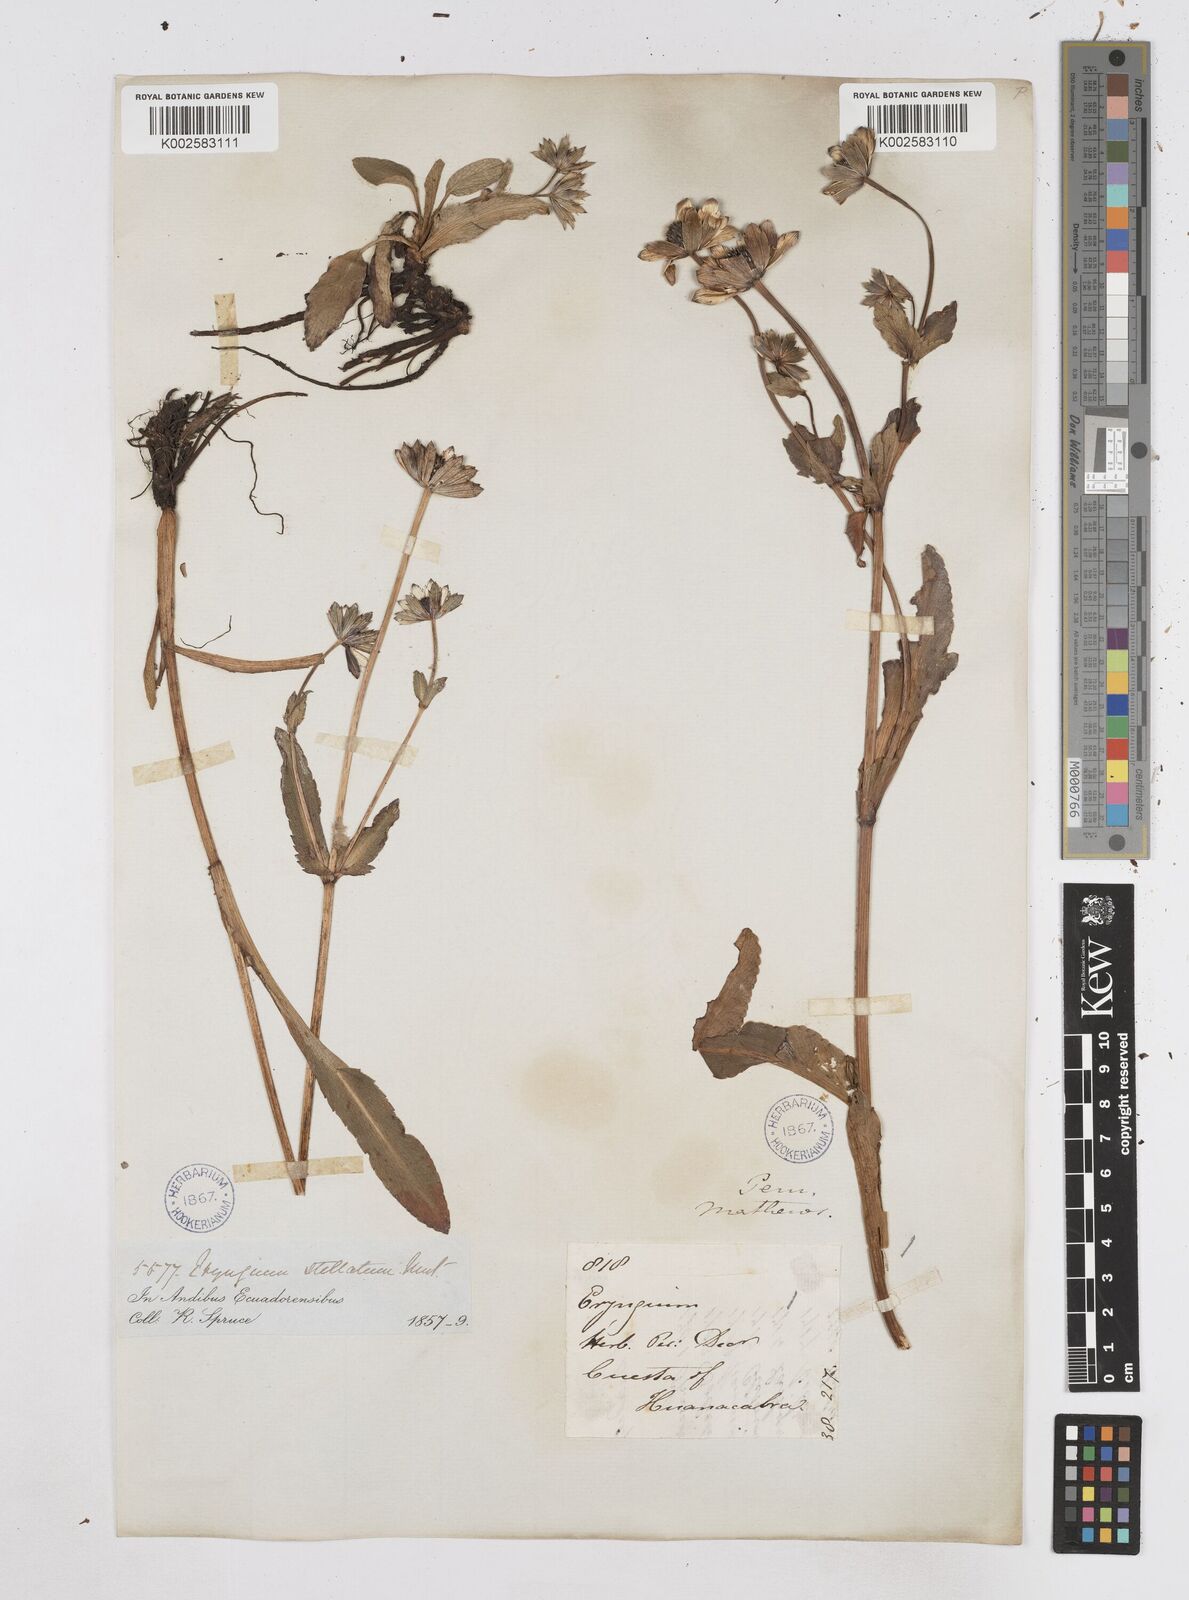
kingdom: Plantae
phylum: Tracheophyta
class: Magnoliopsida
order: Apiales
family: Apiaceae
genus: Eryngium
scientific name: Eryngium humile
